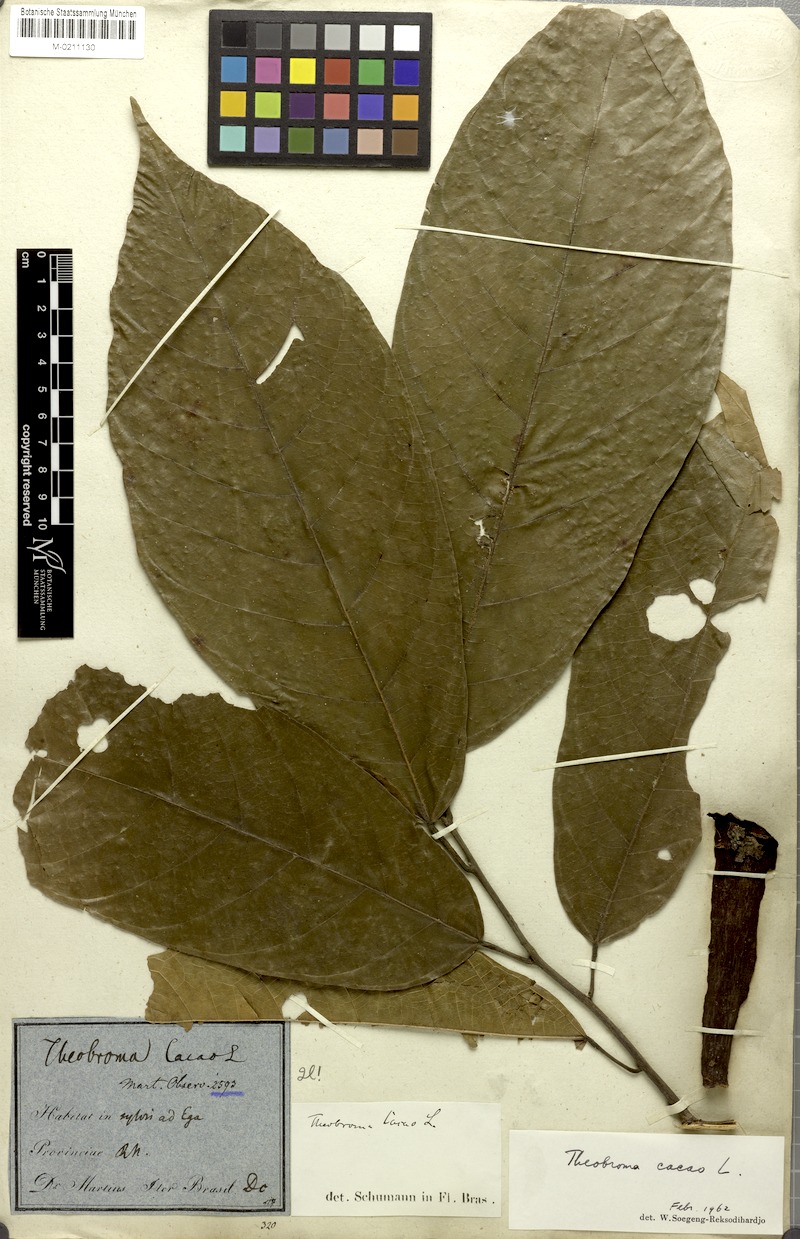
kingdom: Plantae
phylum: Tracheophyta
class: Magnoliopsida
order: Malvales
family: Malvaceae
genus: Theobroma
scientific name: Theobroma cacao
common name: Cocoa
